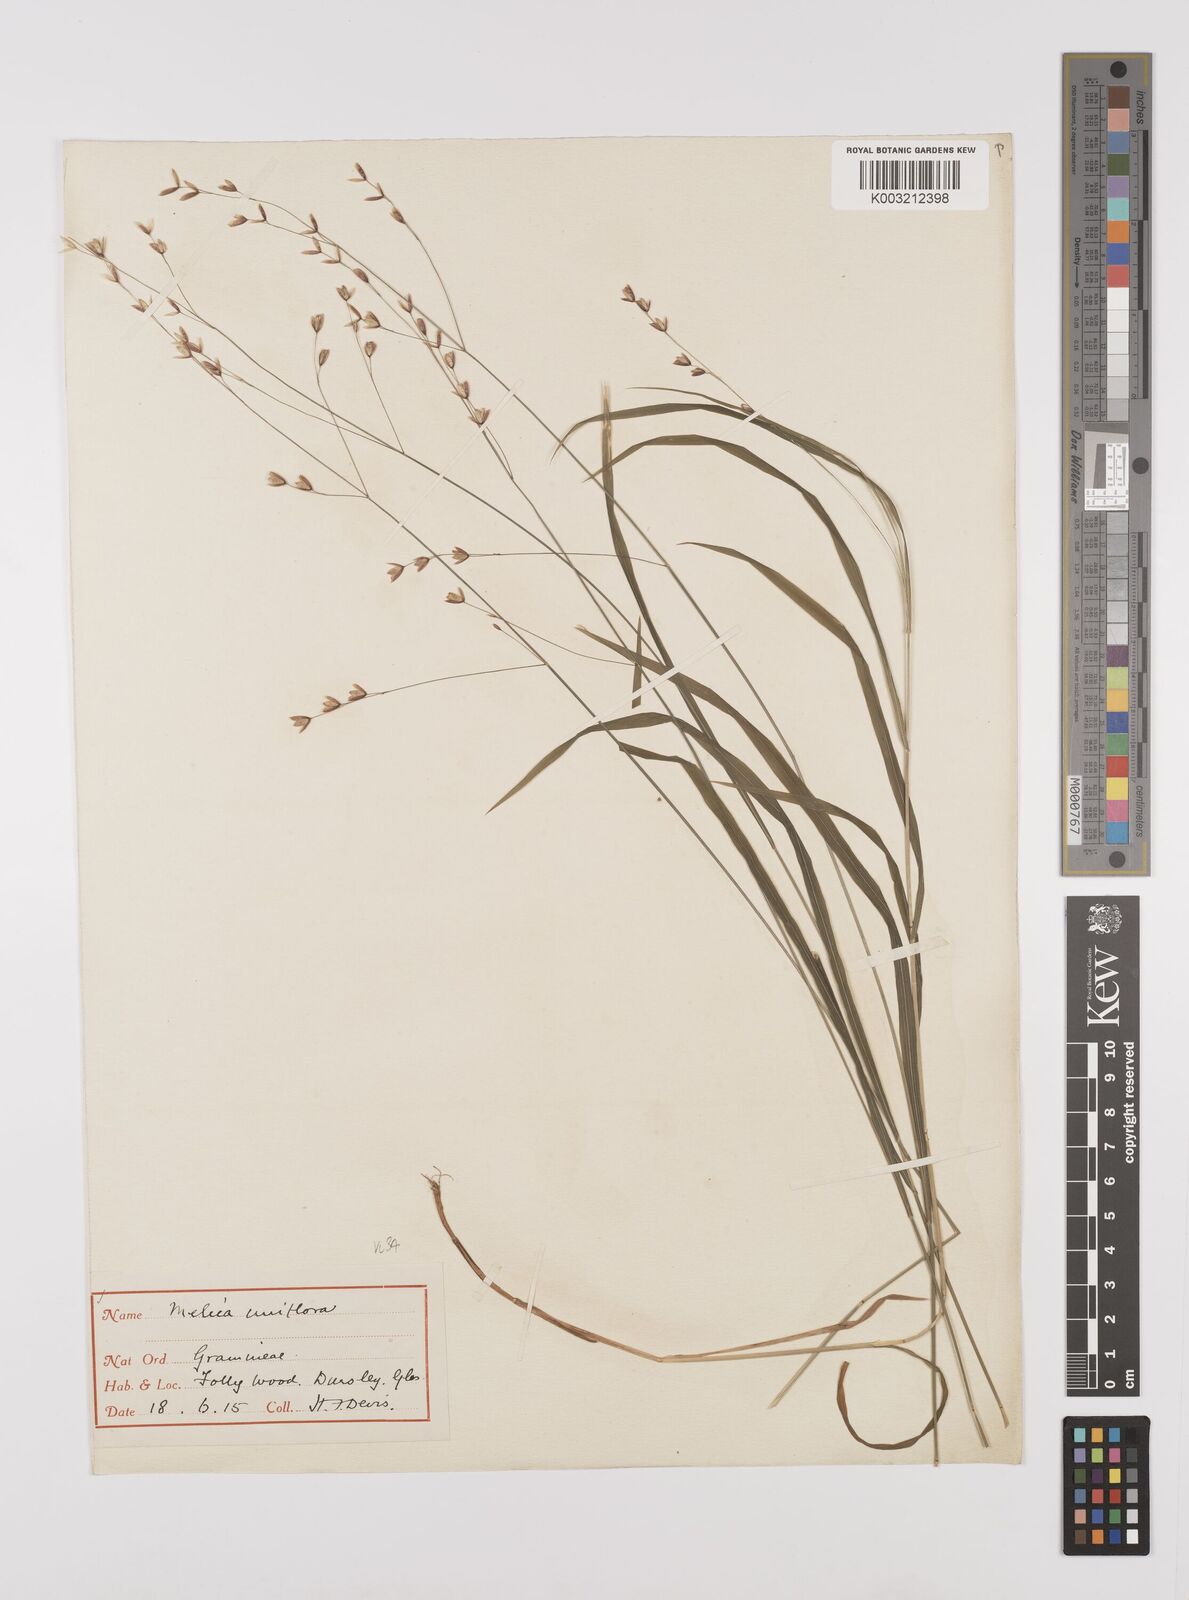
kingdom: Plantae
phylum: Tracheophyta
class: Liliopsida
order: Poales
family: Poaceae
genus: Melica
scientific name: Melica uniflora
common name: Wood melick
